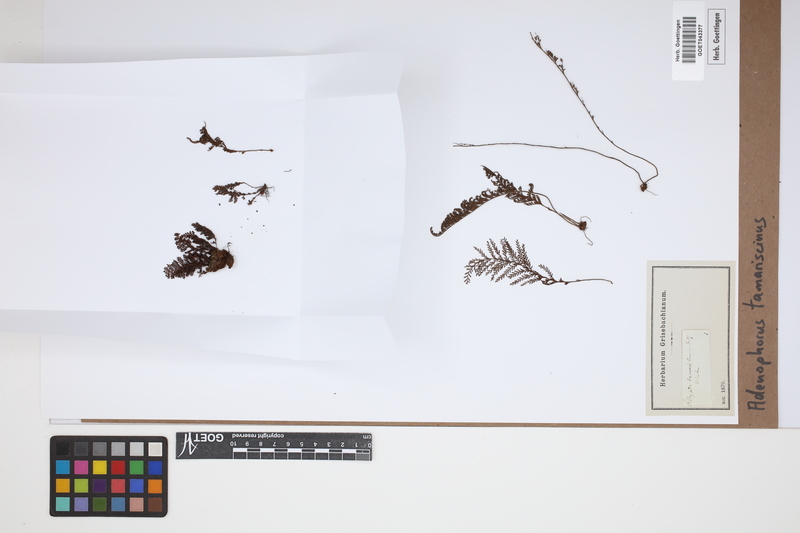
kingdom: Plantae
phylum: Tracheophyta
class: Polypodiopsida
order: Polypodiales
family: Polypodiaceae
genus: Adenophorus
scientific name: Adenophorus tamariscinus
